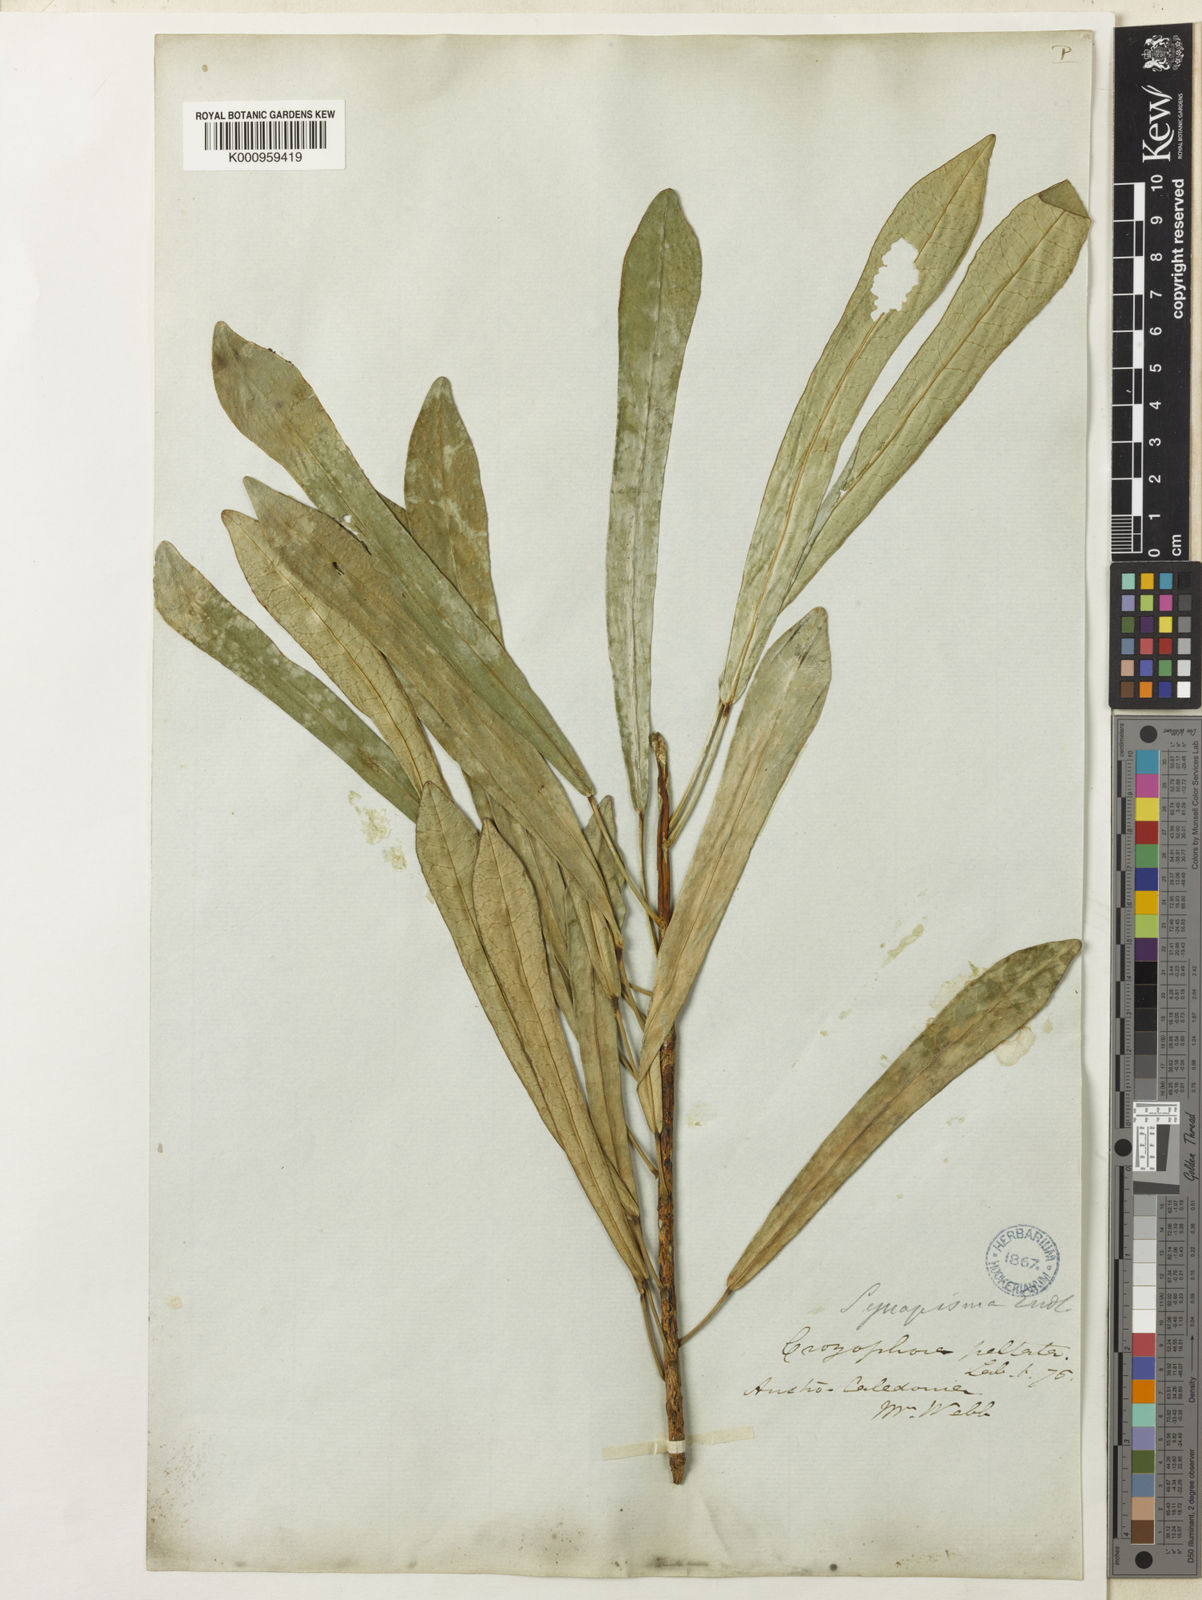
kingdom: Plantae
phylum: Tracheophyta
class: Magnoliopsida
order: Malpighiales
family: Euphorbiaceae
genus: Codiaeum
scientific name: Codiaeum
